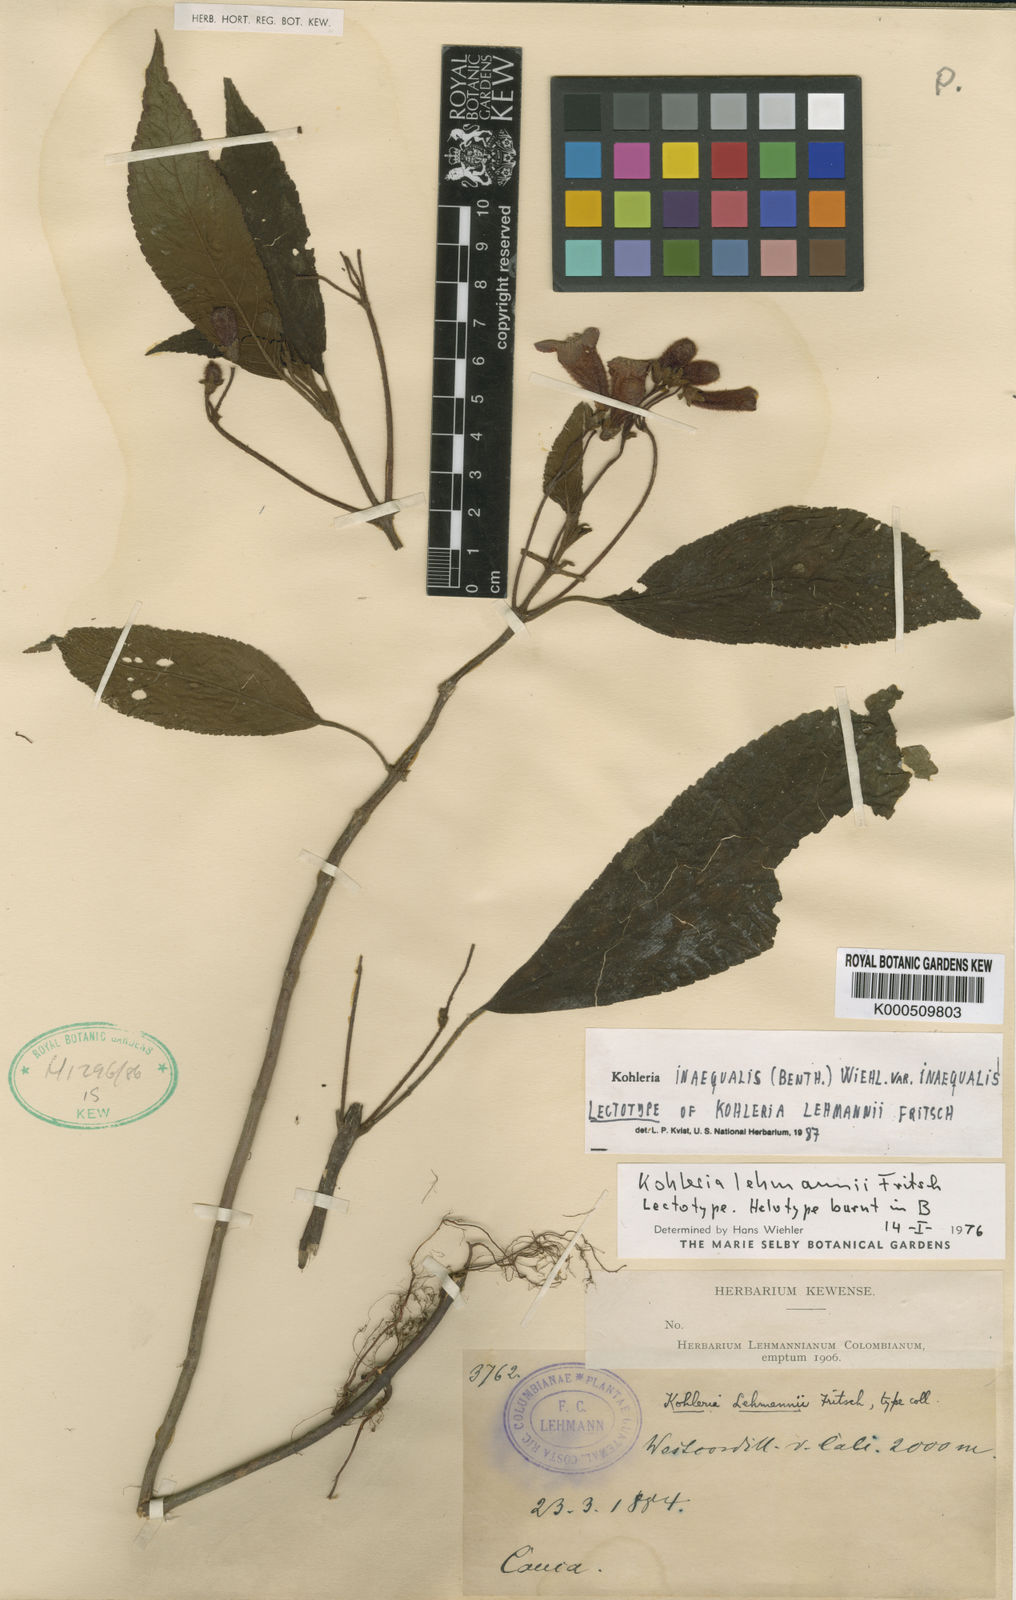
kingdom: Plantae
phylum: Tracheophyta
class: Magnoliopsida
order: Lamiales
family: Gesneriaceae
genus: Kohleria
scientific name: Kohleria inaequalis
